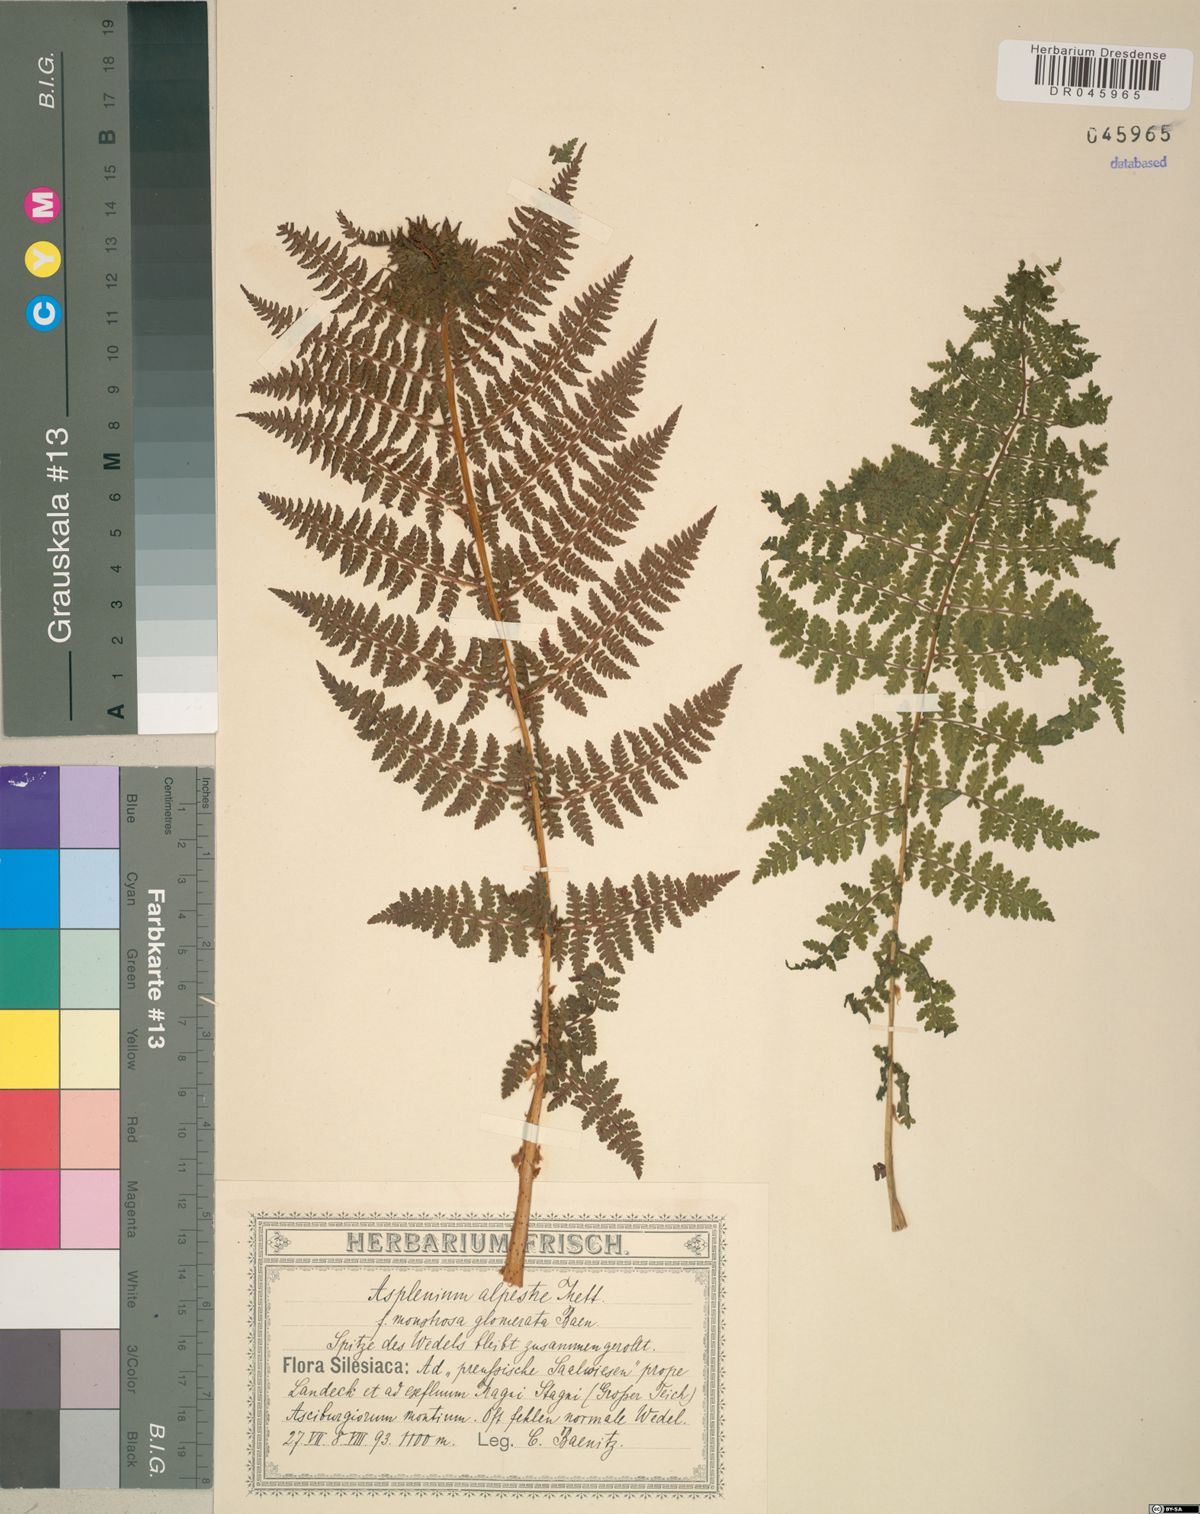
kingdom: Plantae
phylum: Tracheophyta
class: Polypodiopsida
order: Polypodiales
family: Athyriaceae
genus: Diplazium
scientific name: Diplazium pallidum
